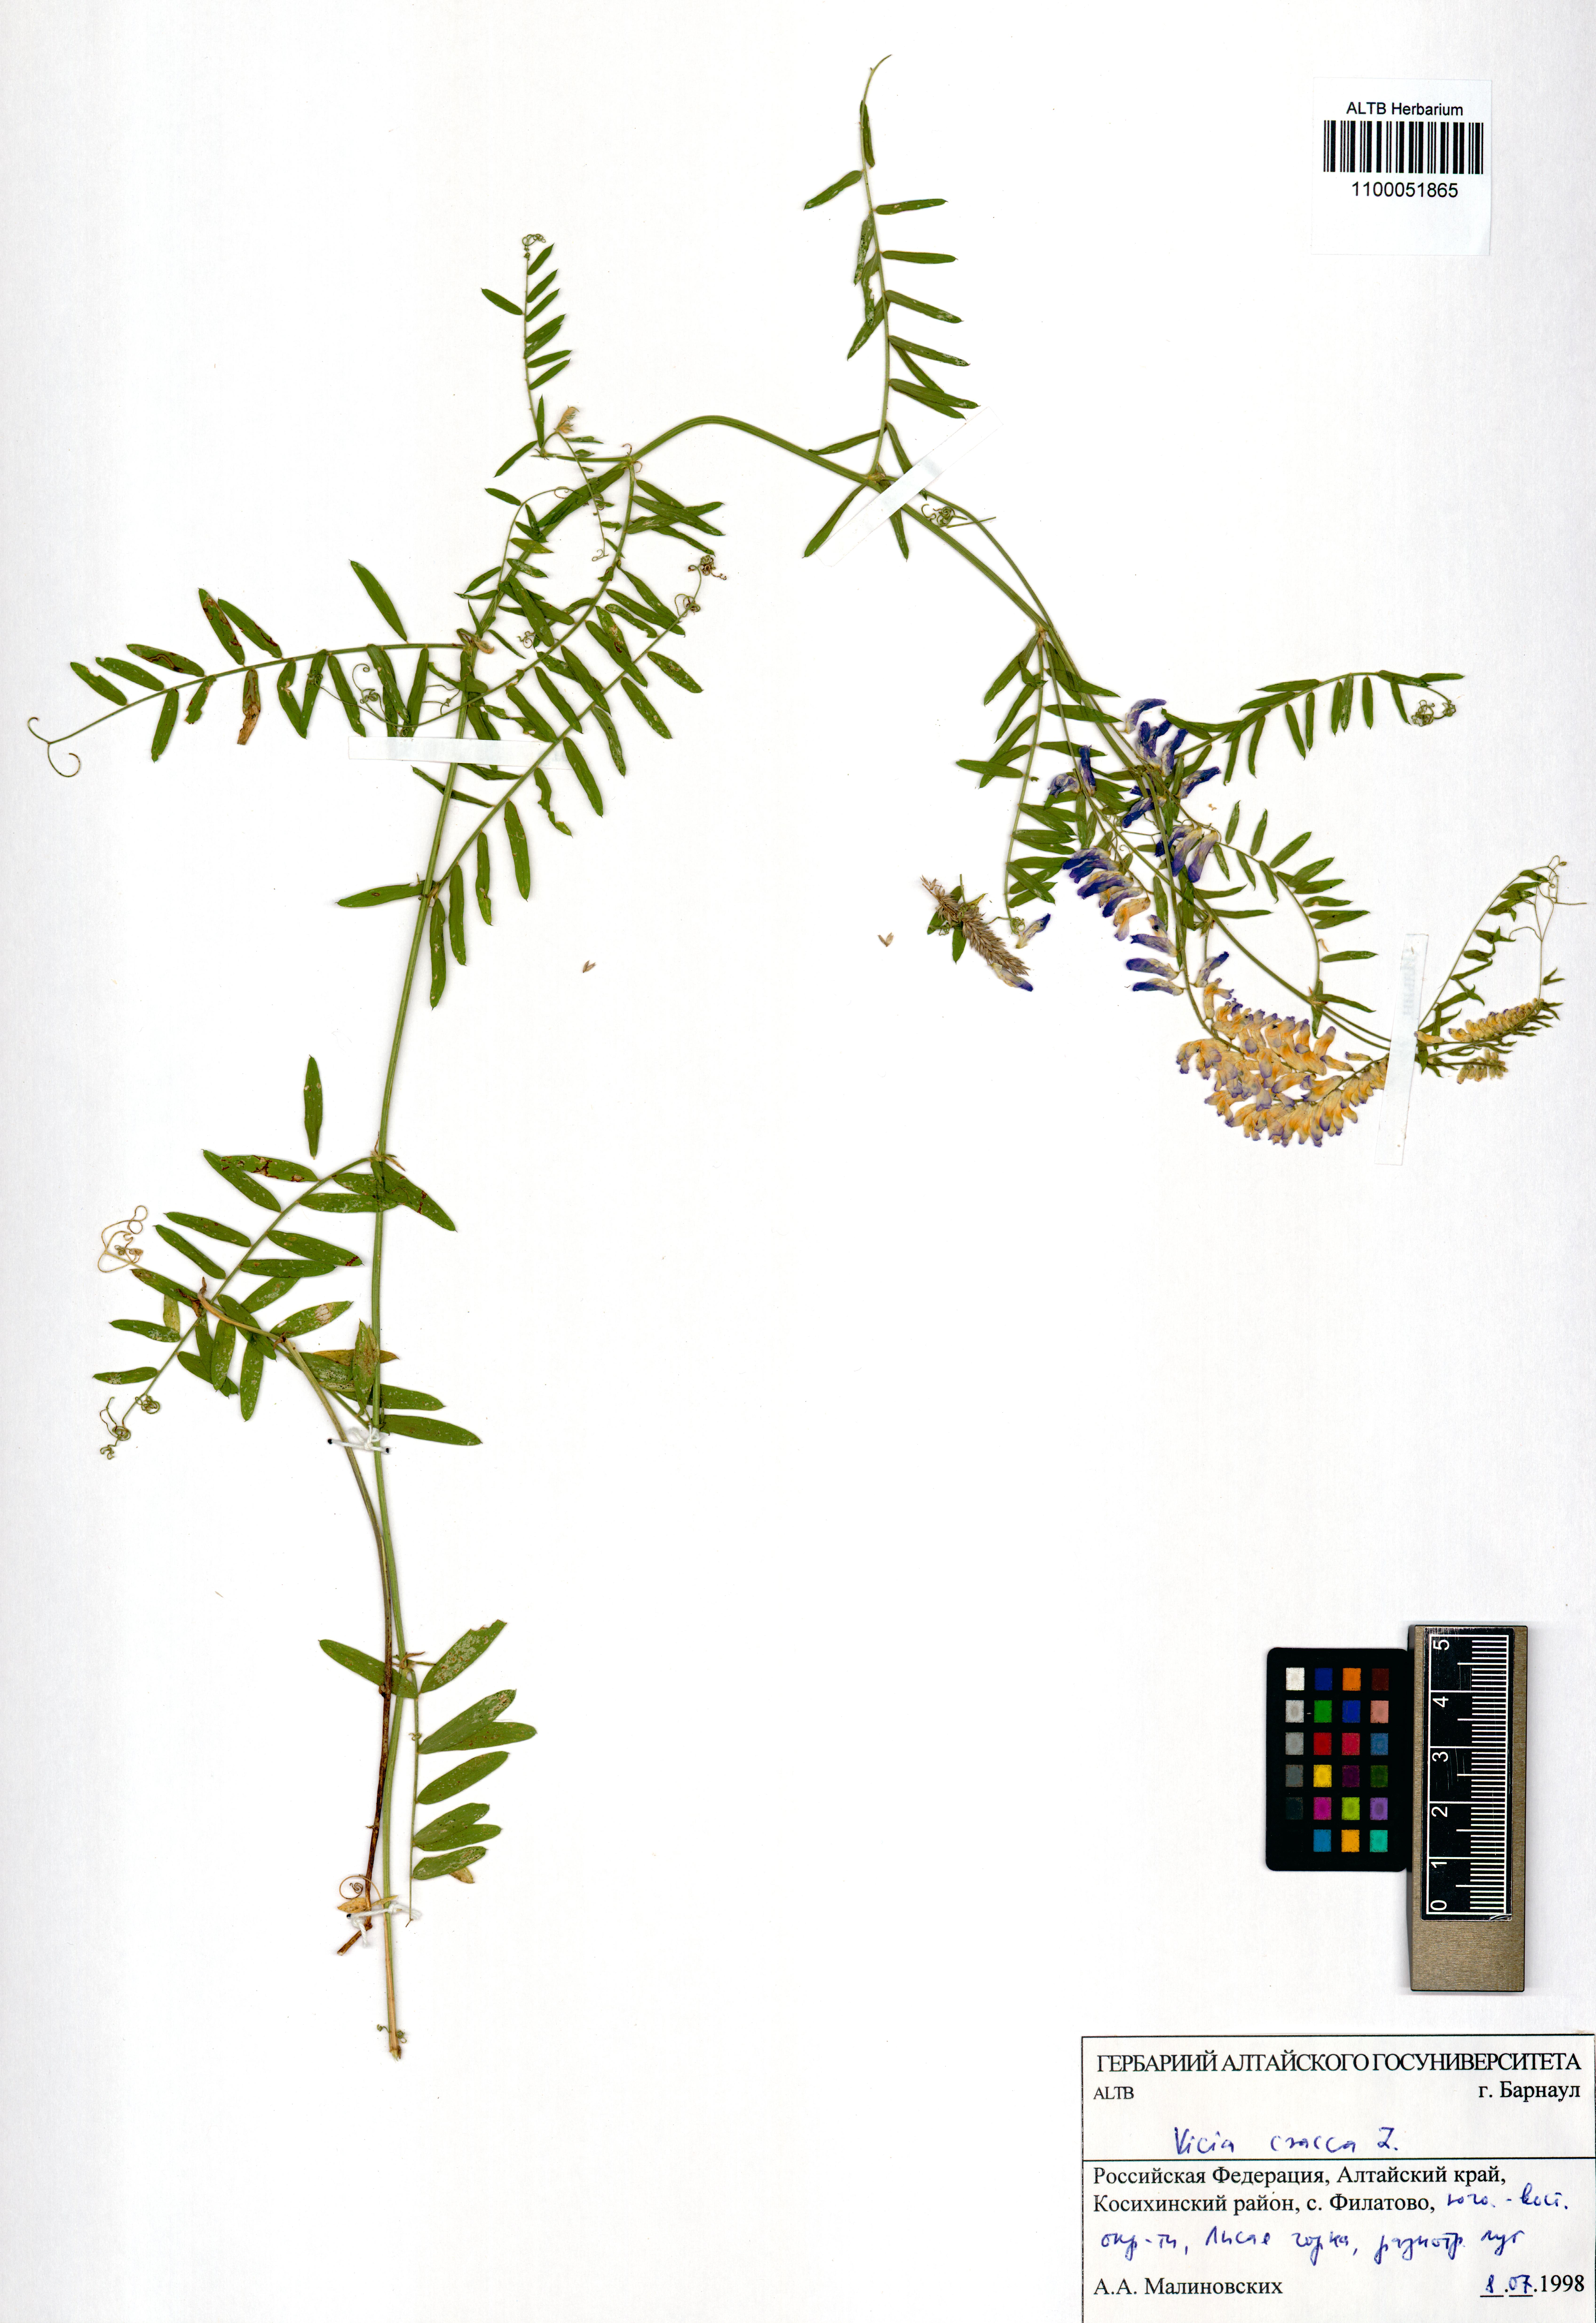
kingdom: Plantae
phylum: Tracheophyta
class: Magnoliopsida
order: Fabales
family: Fabaceae
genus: Vicia
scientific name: Vicia cracca
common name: Bird vetch
